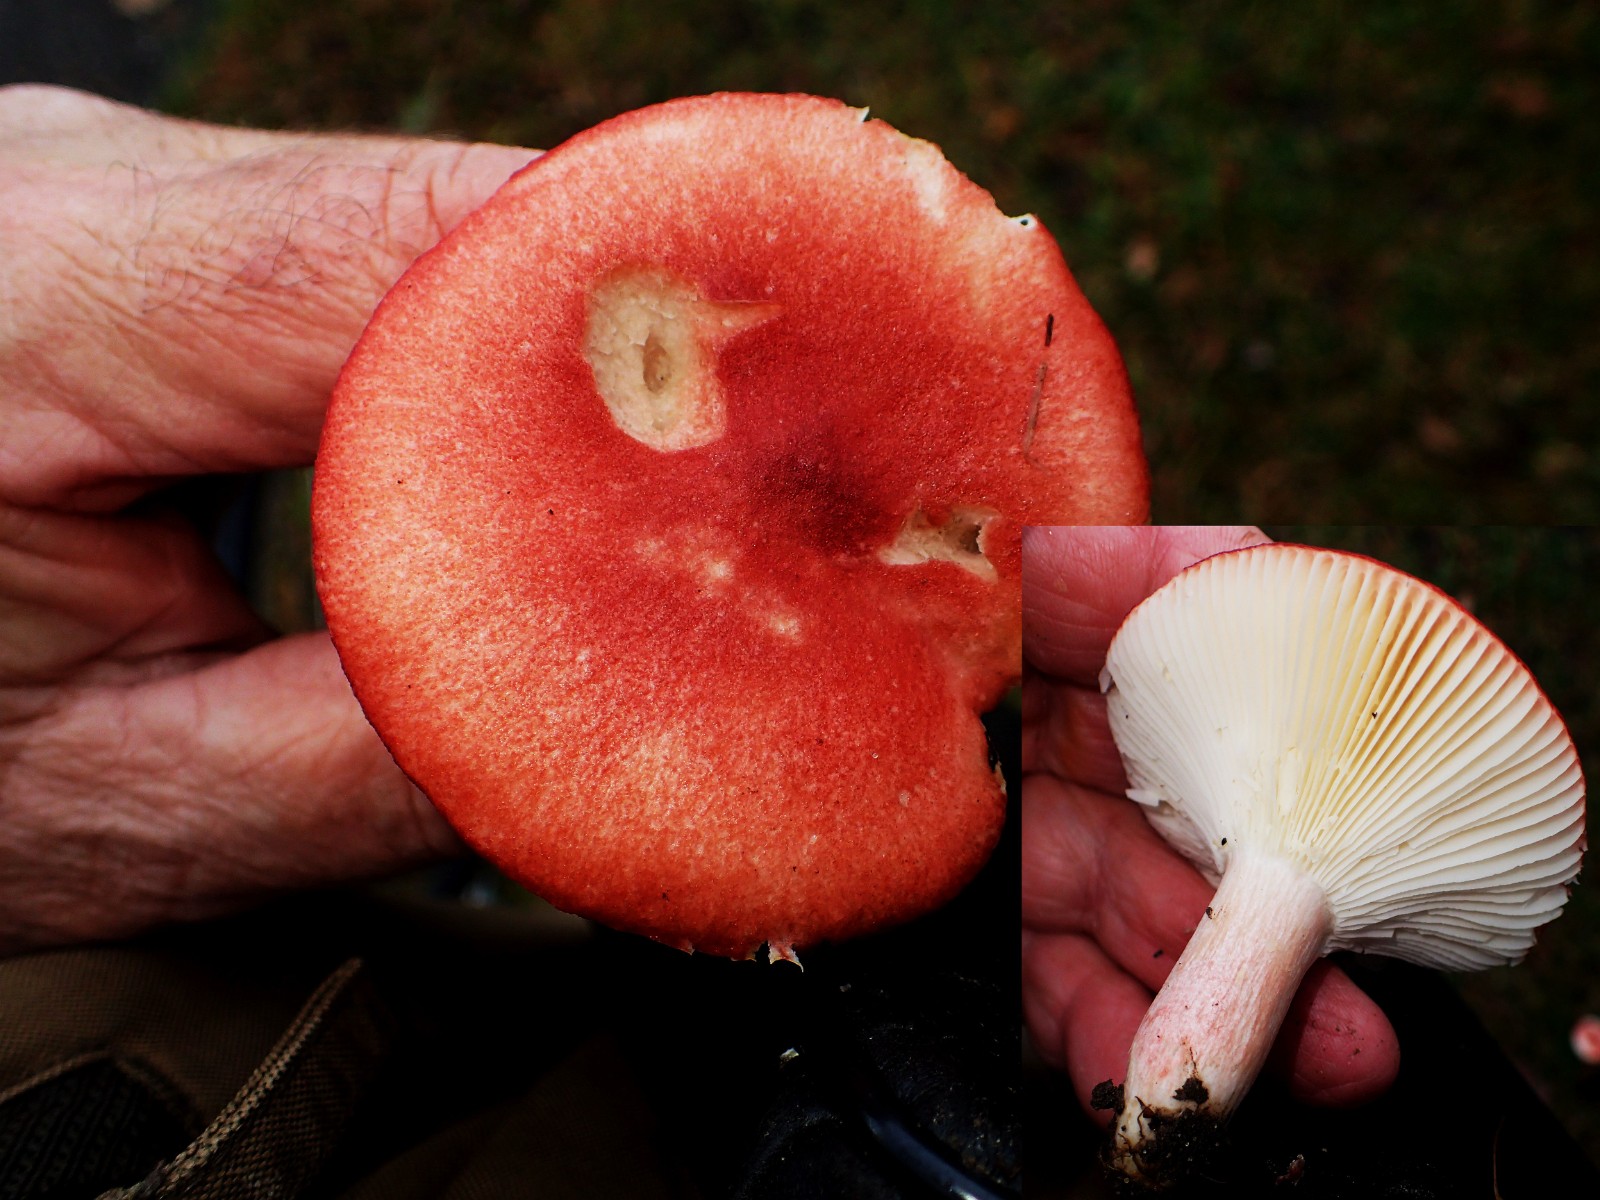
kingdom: Fungi
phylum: Basidiomycota
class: Agaricomycetes
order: Russulales
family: Russulaceae
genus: Russula
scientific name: Russula sanguinea
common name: blodrød skørhat
